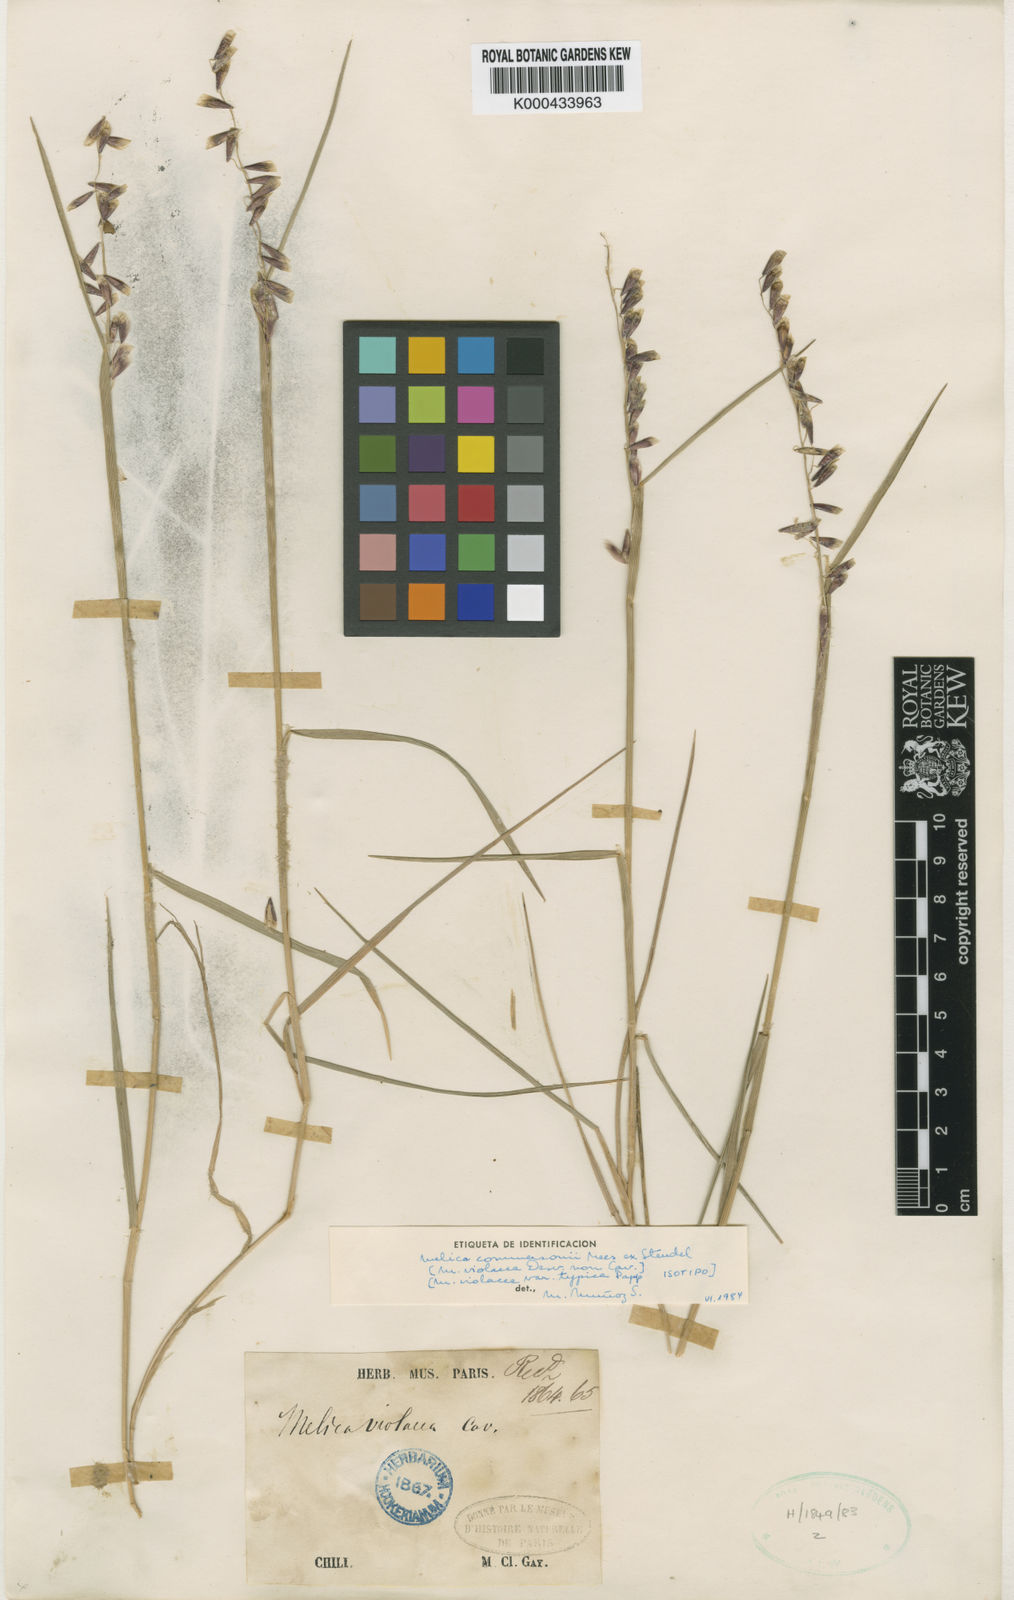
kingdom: Plantae
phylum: Tracheophyta
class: Liliopsida
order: Poales
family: Poaceae
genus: Melica
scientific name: Melica commersonii
